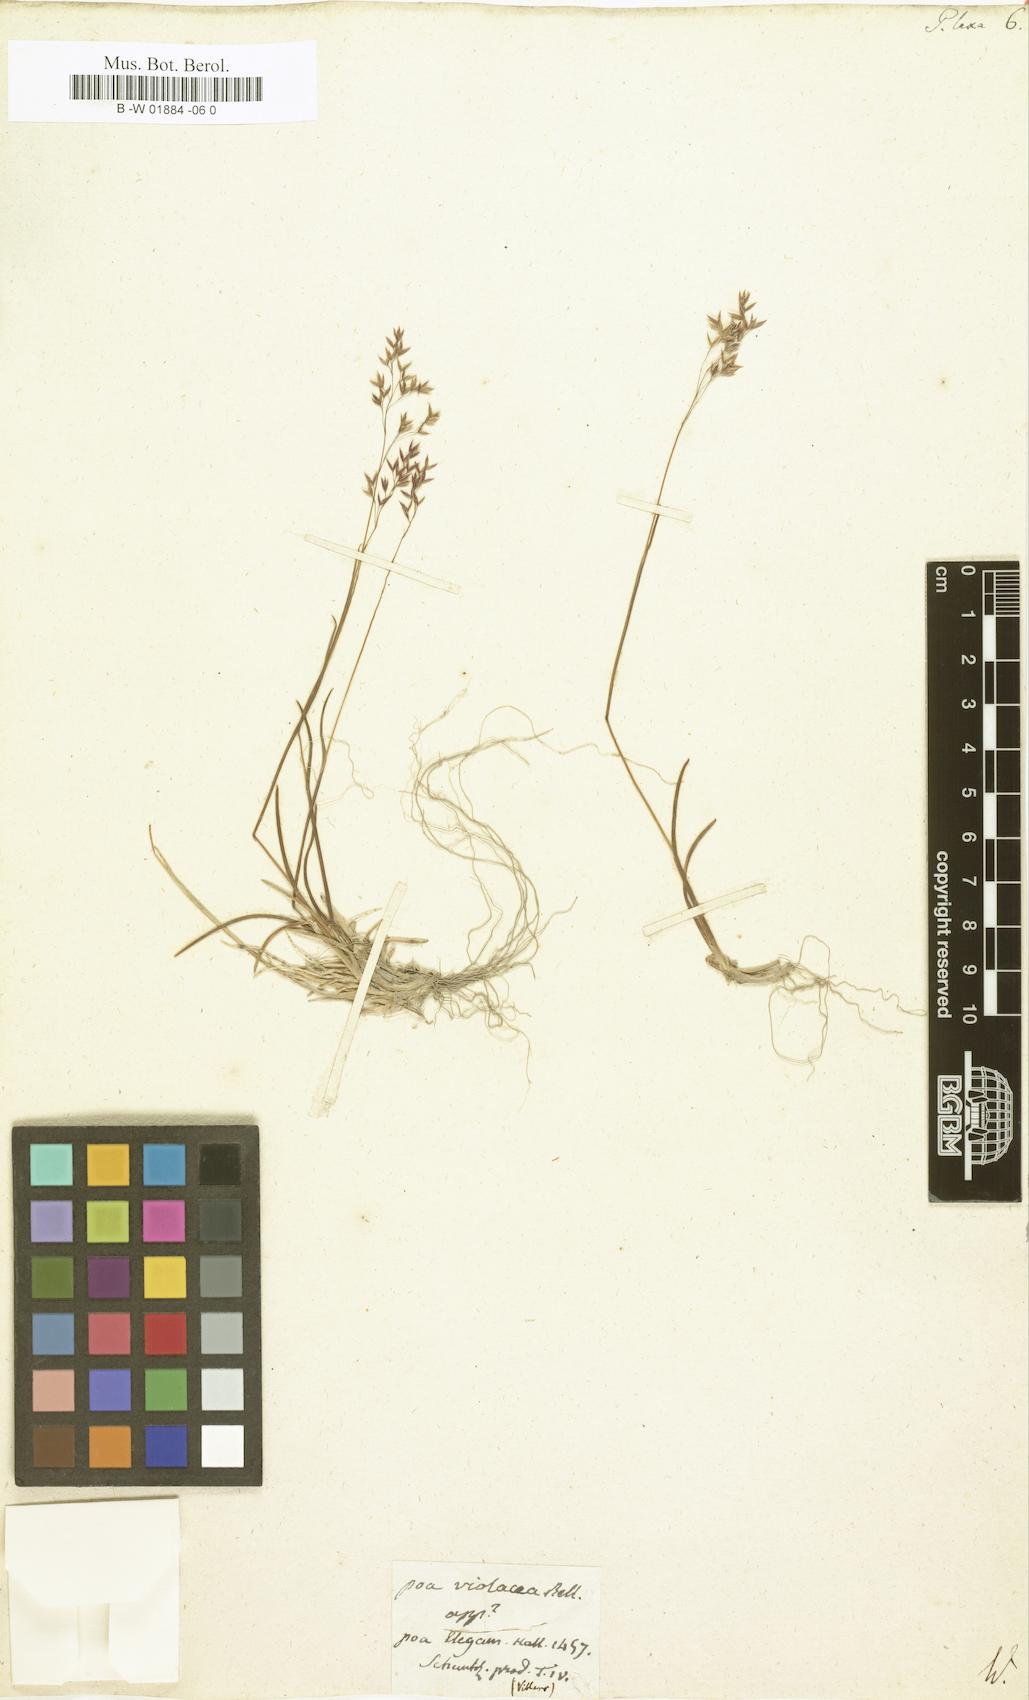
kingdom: Plantae
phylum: Tracheophyta
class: Liliopsida
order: Poales
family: Poaceae
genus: Poa
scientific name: Poa laxa
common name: Lax bluegrass
